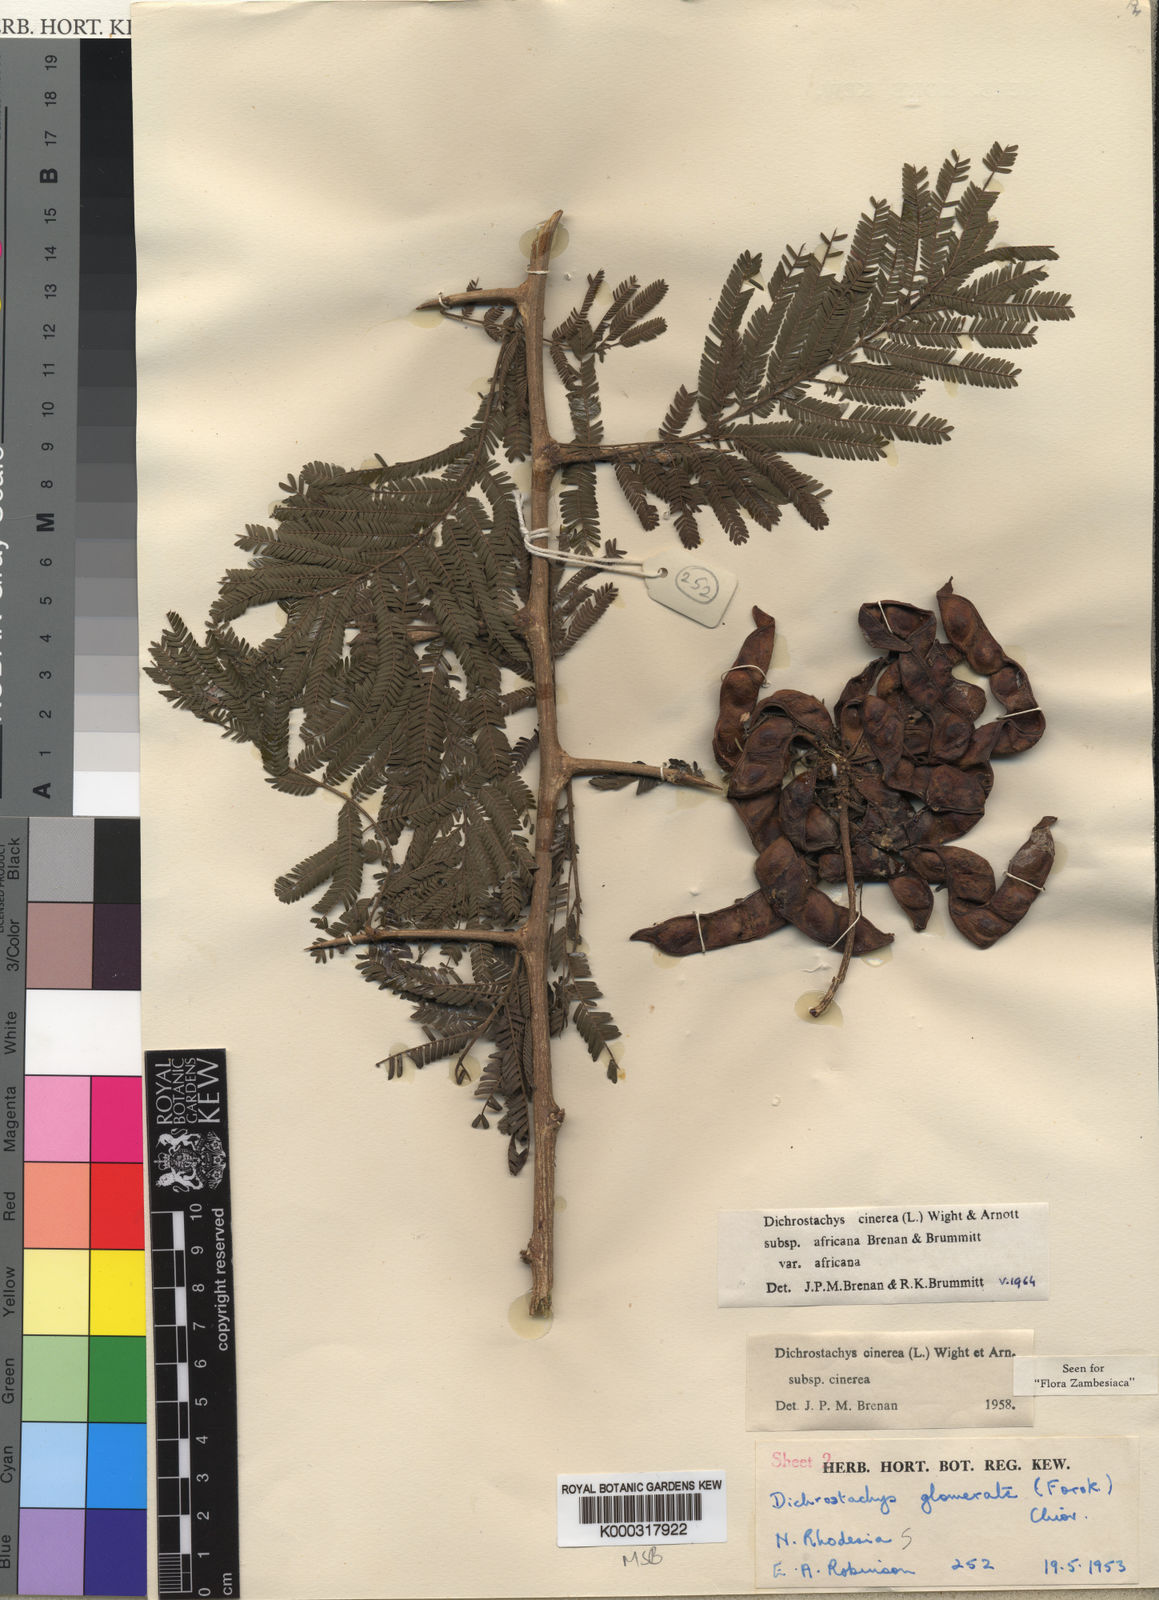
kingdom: Plantae
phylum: Tracheophyta
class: Magnoliopsida
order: Fabales
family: Fabaceae
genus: Dichrostachys
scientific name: Dichrostachys cinerea
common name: Sicklebush
